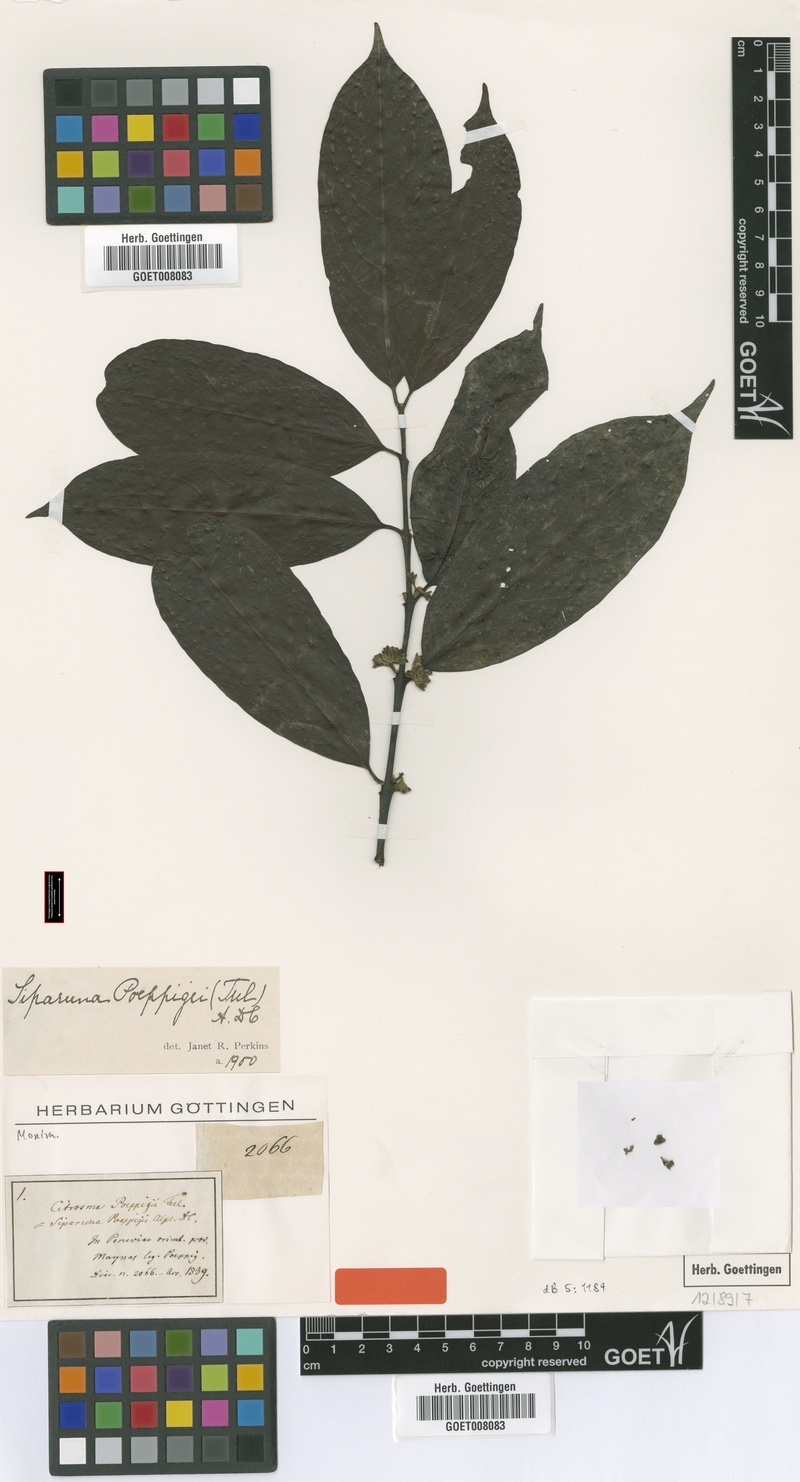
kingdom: Plantae
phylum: Tracheophyta
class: Magnoliopsida
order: Laurales
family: Siparunaceae
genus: Siparuna
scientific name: Siparuna poeppigii
